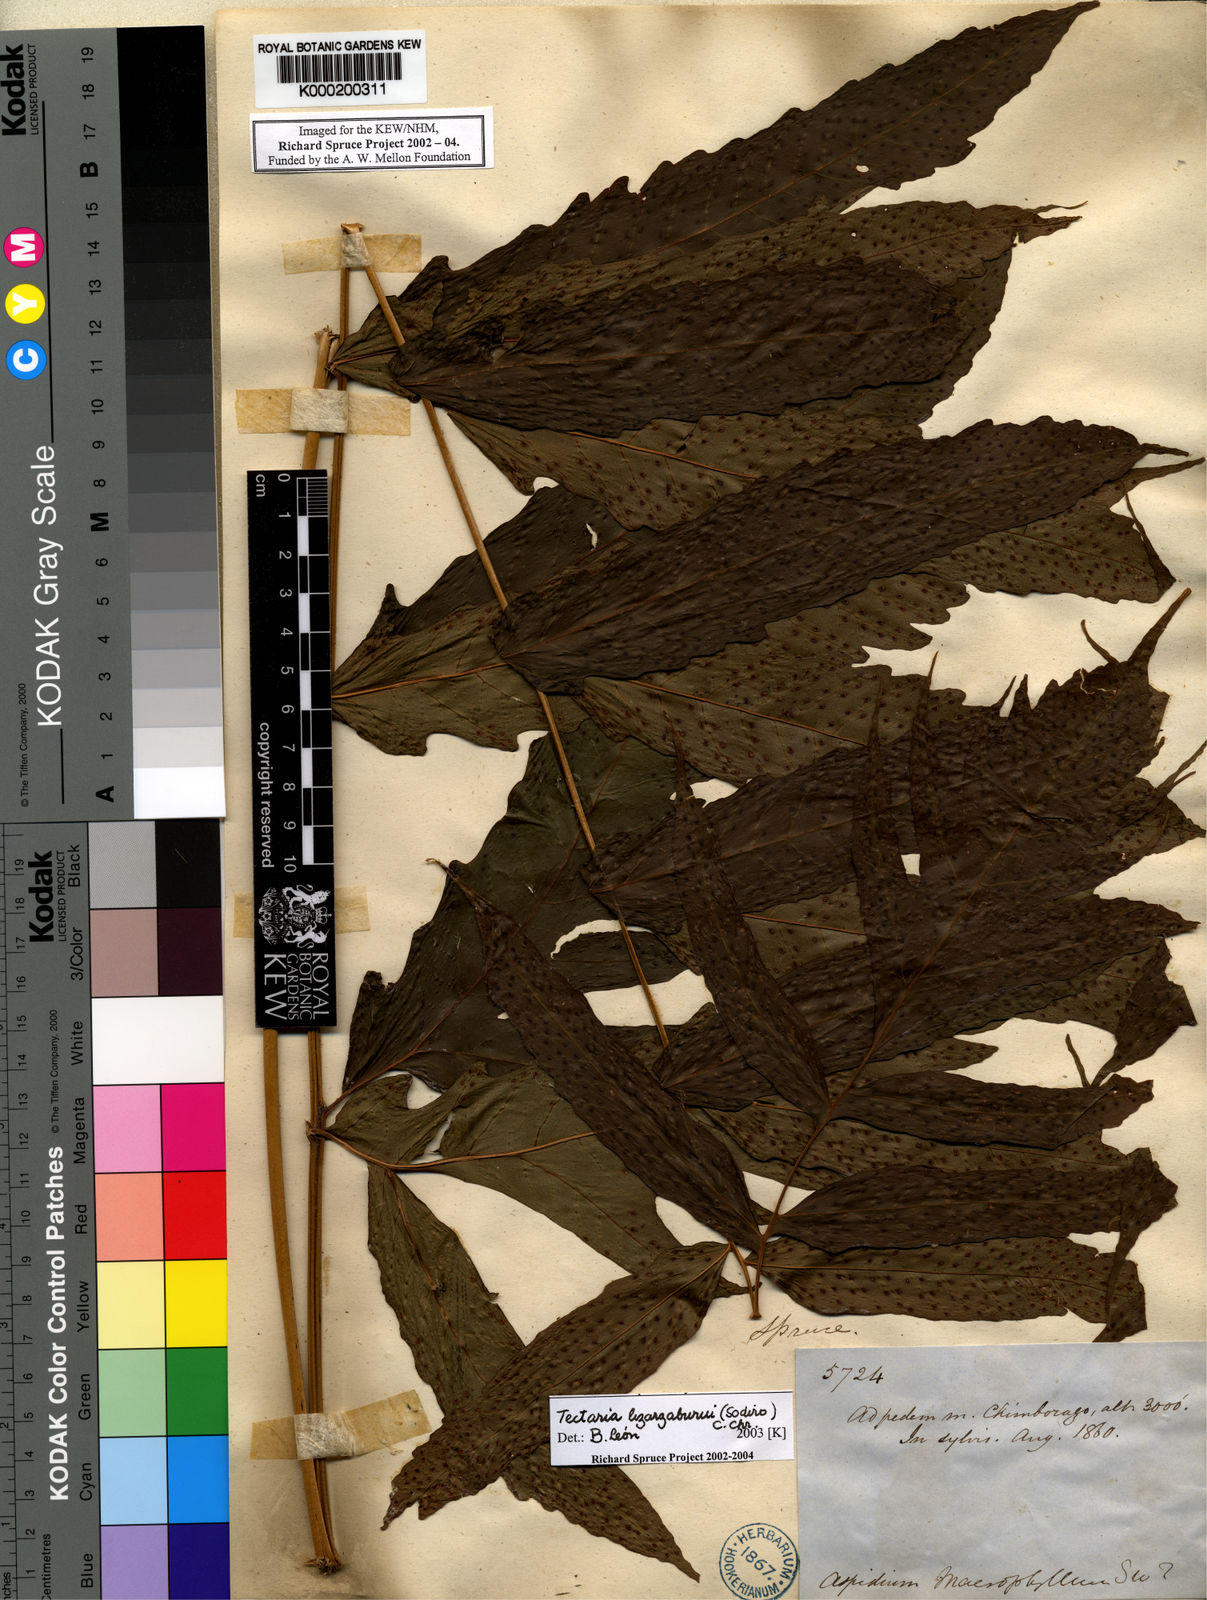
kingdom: Plantae
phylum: Tracheophyta
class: Polypodiopsida
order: Polypodiales
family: Tectariaceae
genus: Tectaria
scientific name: Tectaria lizarzaburui
